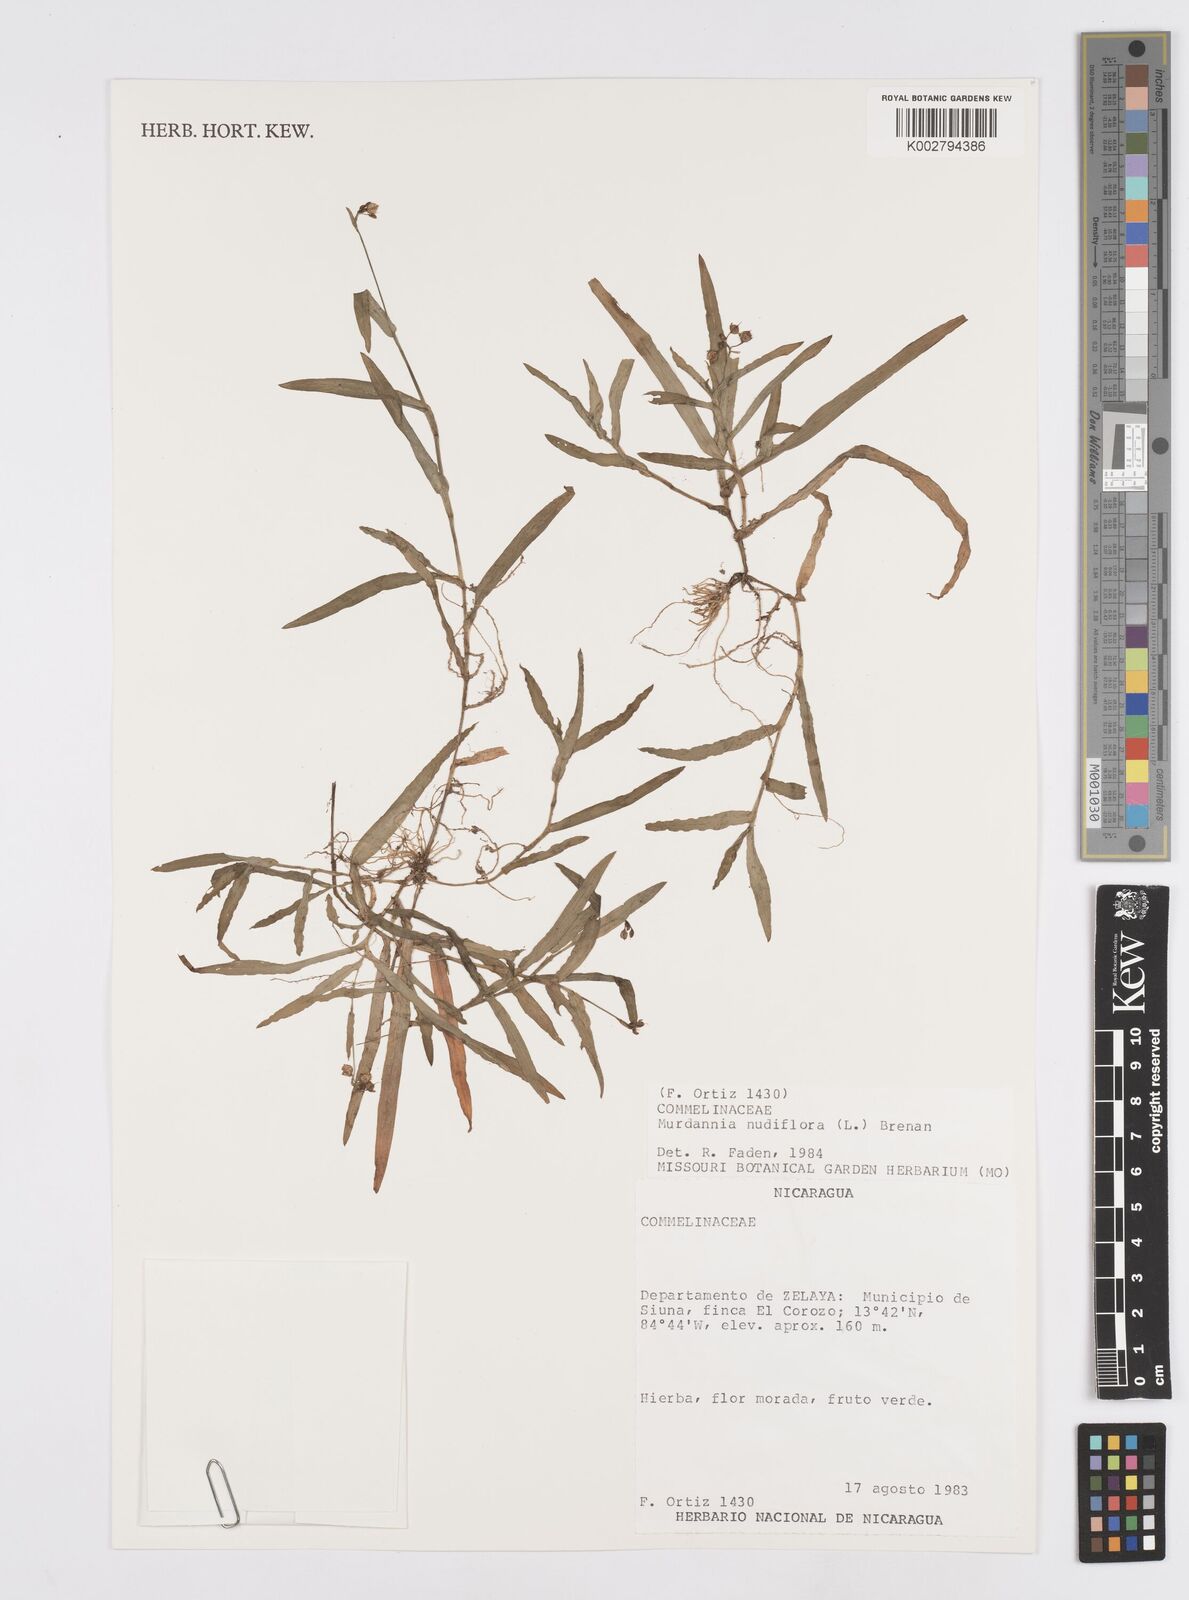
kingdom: Plantae
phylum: Tracheophyta
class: Liliopsida
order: Commelinales
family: Commelinaceae
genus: Murdannia
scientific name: Murdannia nudiflora
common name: Nakedstem dewflower
